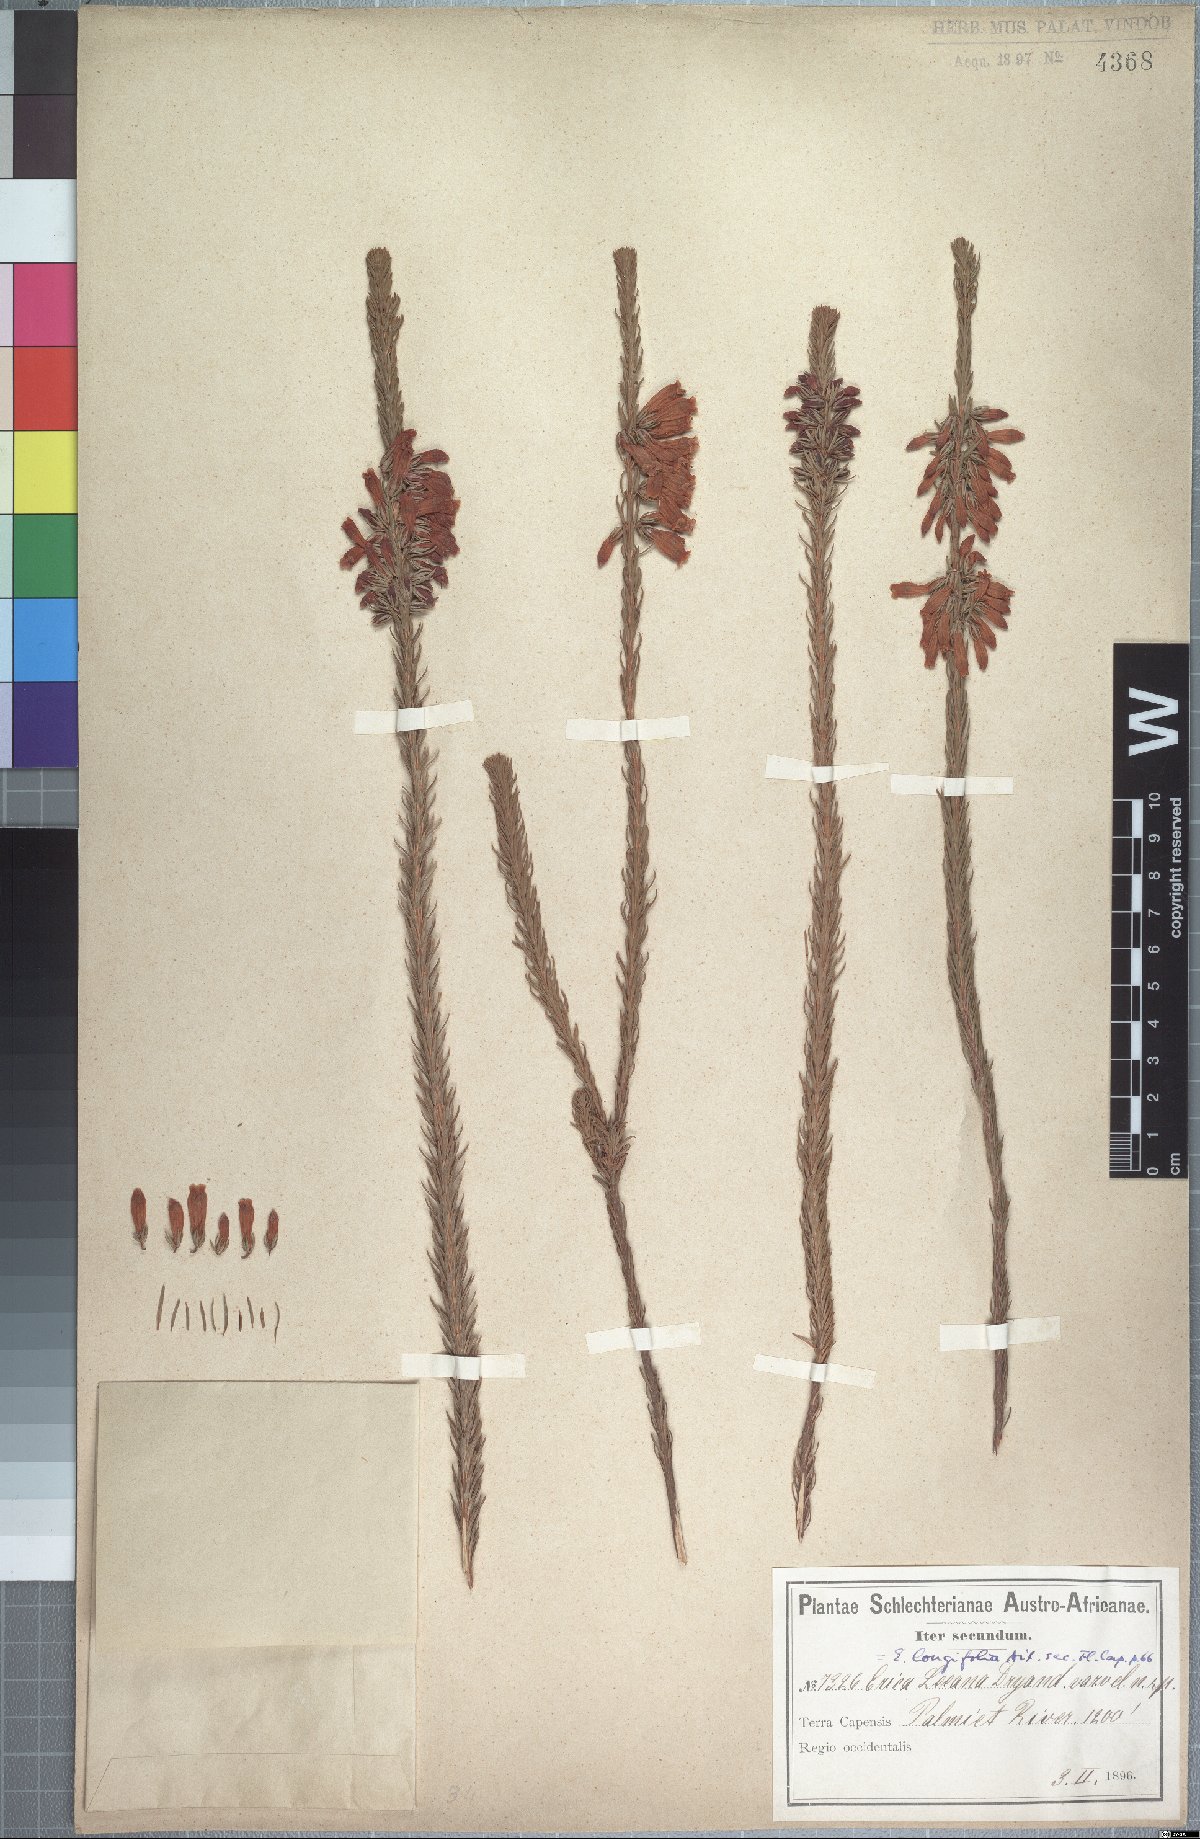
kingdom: Plantae
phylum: Tracheophyta
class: Magnoliopsida
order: Ericales
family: Ericaceae
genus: Erica
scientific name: Erica viscaria
